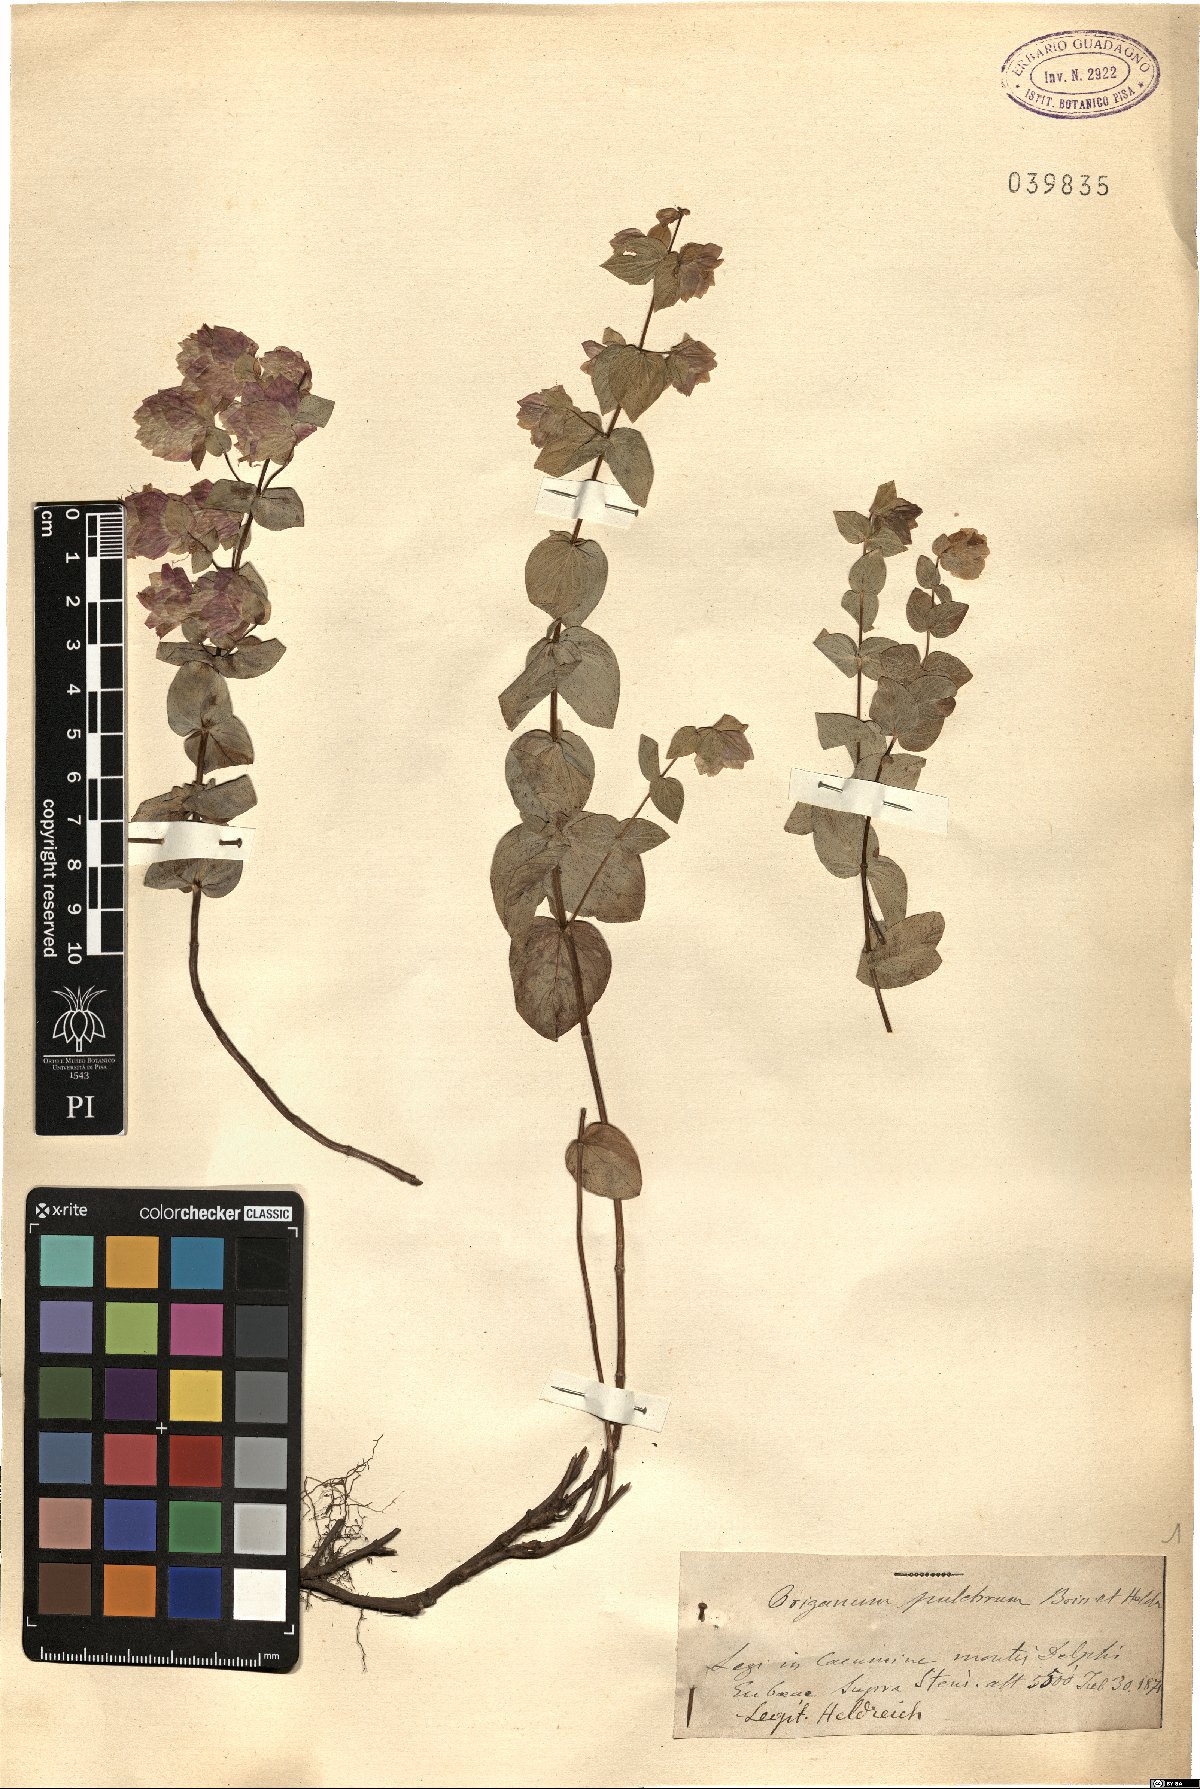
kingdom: Plantae
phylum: Tracheophyta
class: Magnoliopsida
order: Lamiales
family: Lamiaceae
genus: Origanum
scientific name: Origanum scabrum
